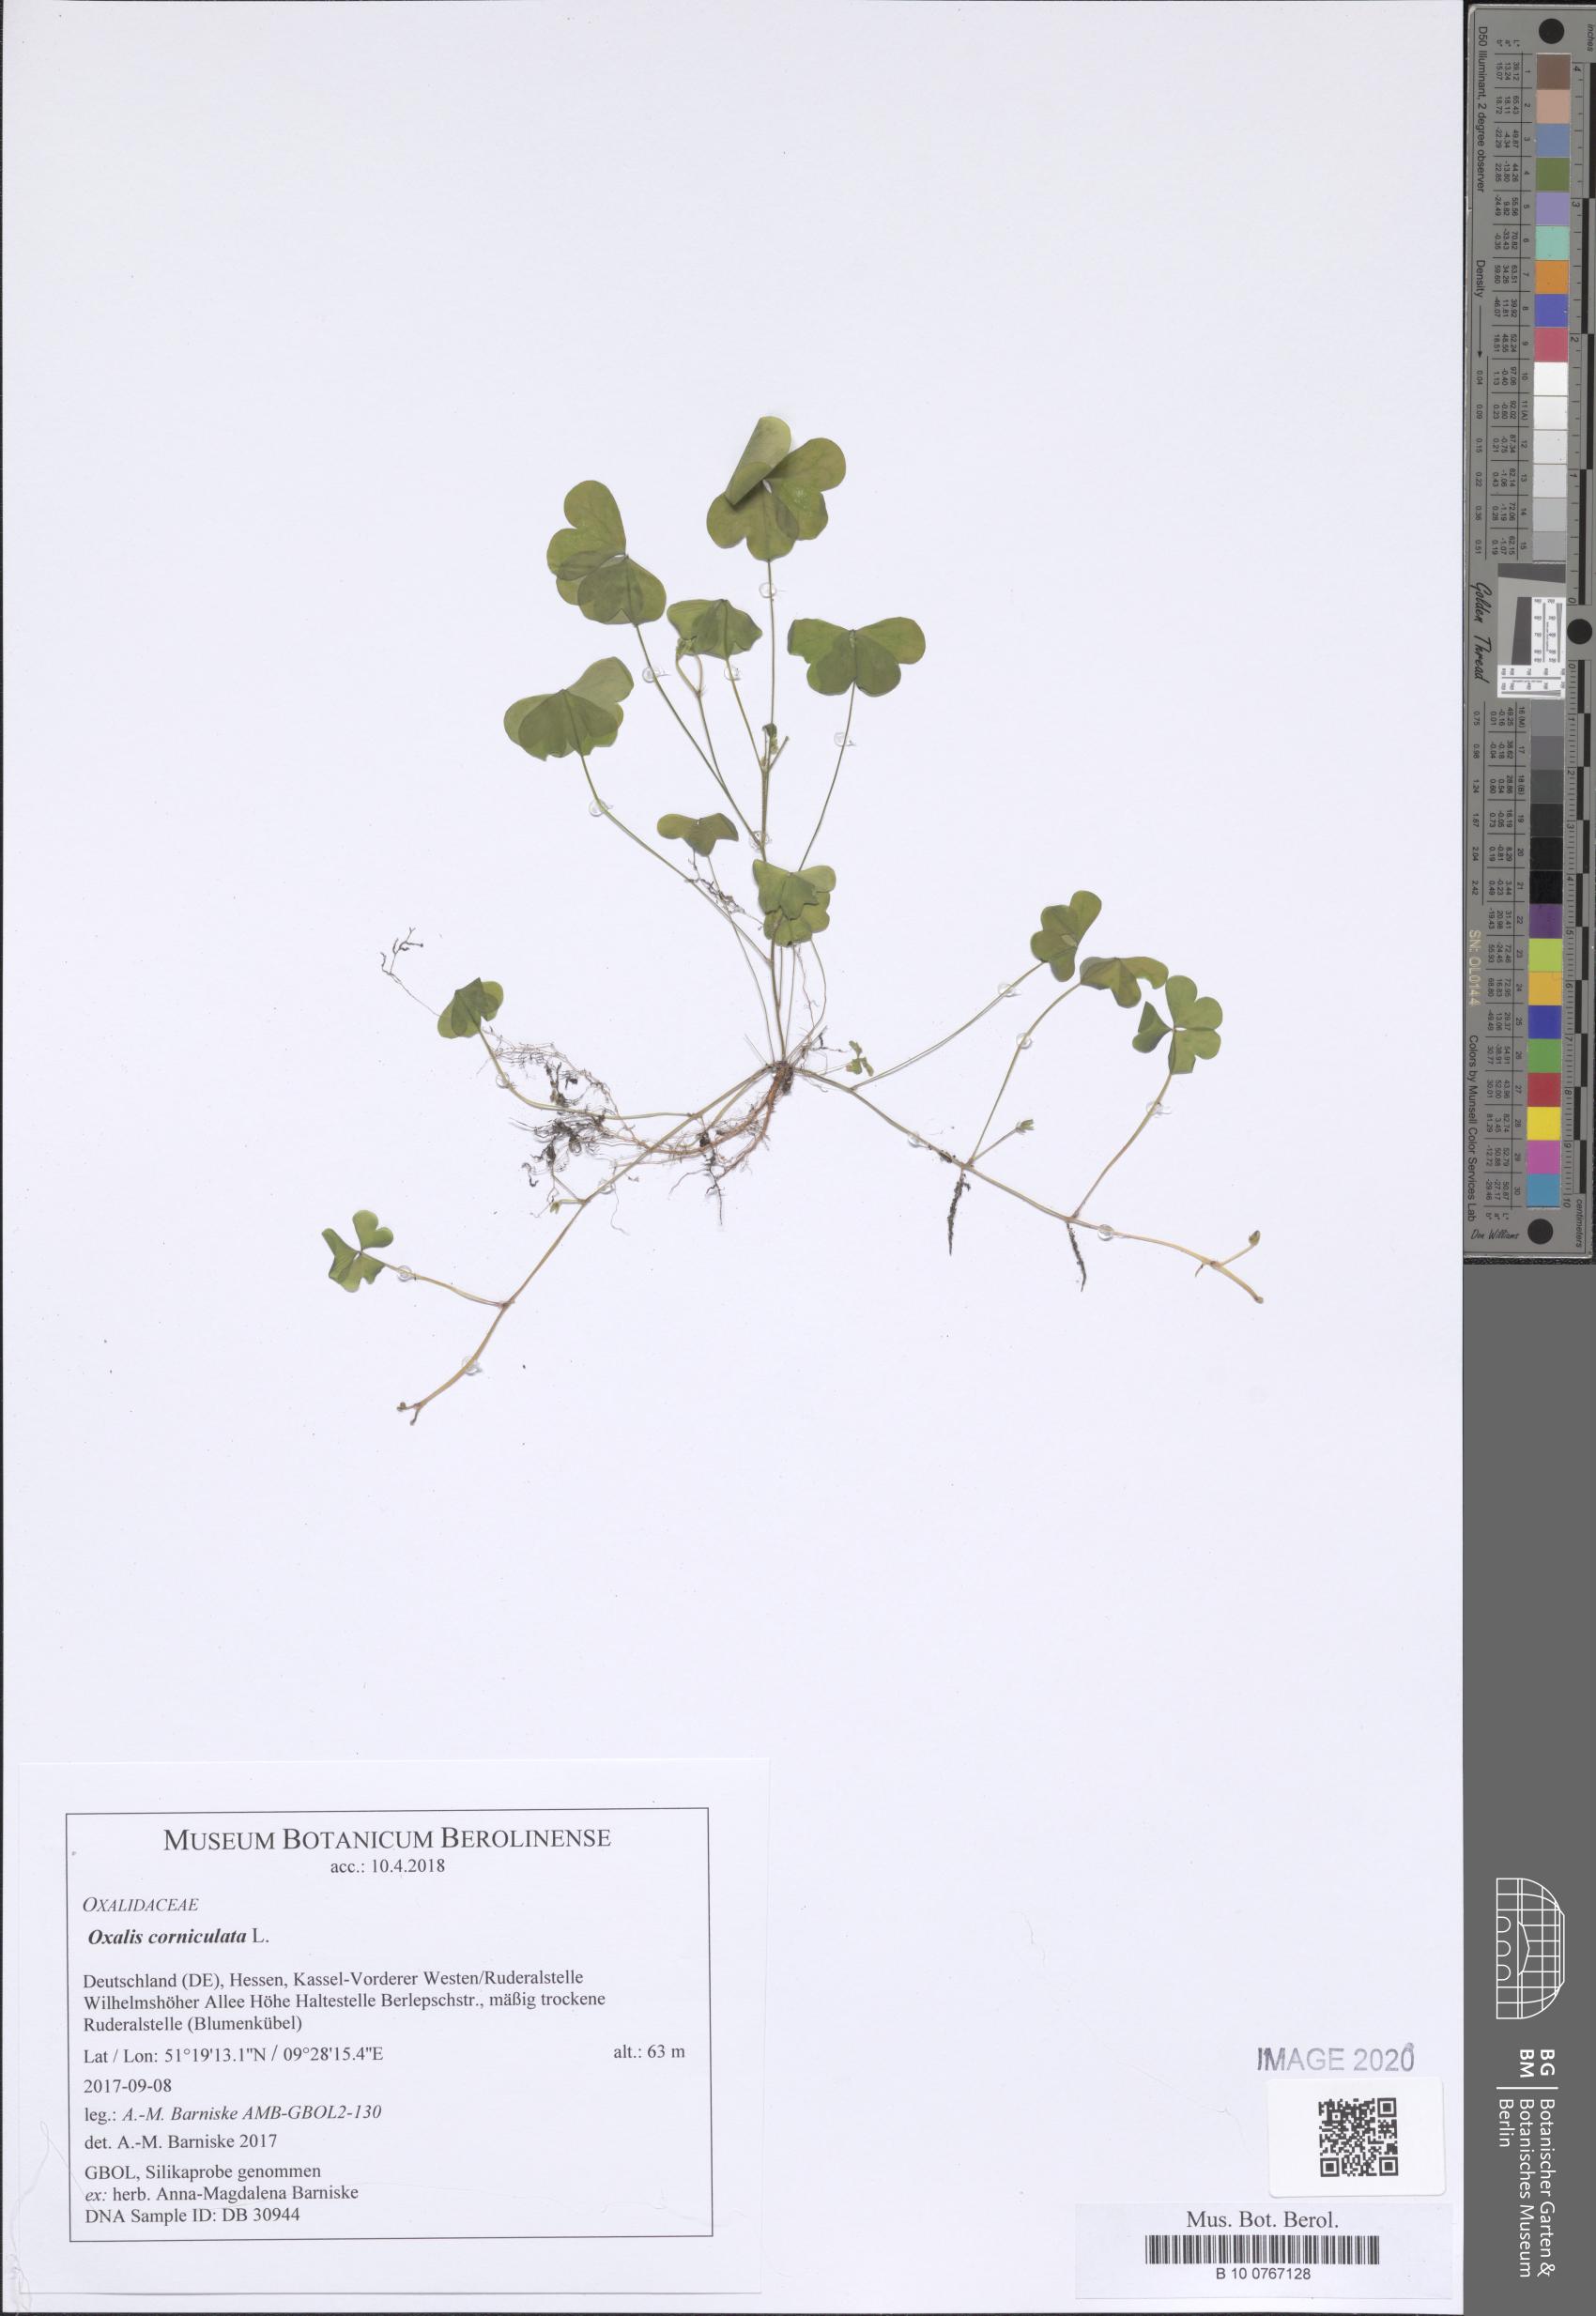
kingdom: Plantae
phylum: Tracheophyta
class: Magnoliopsida
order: Oxalidales
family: Oxalidaceae
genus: Oxalis
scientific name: Oxalis corniculata
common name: Procumbent yellow-sorrel
